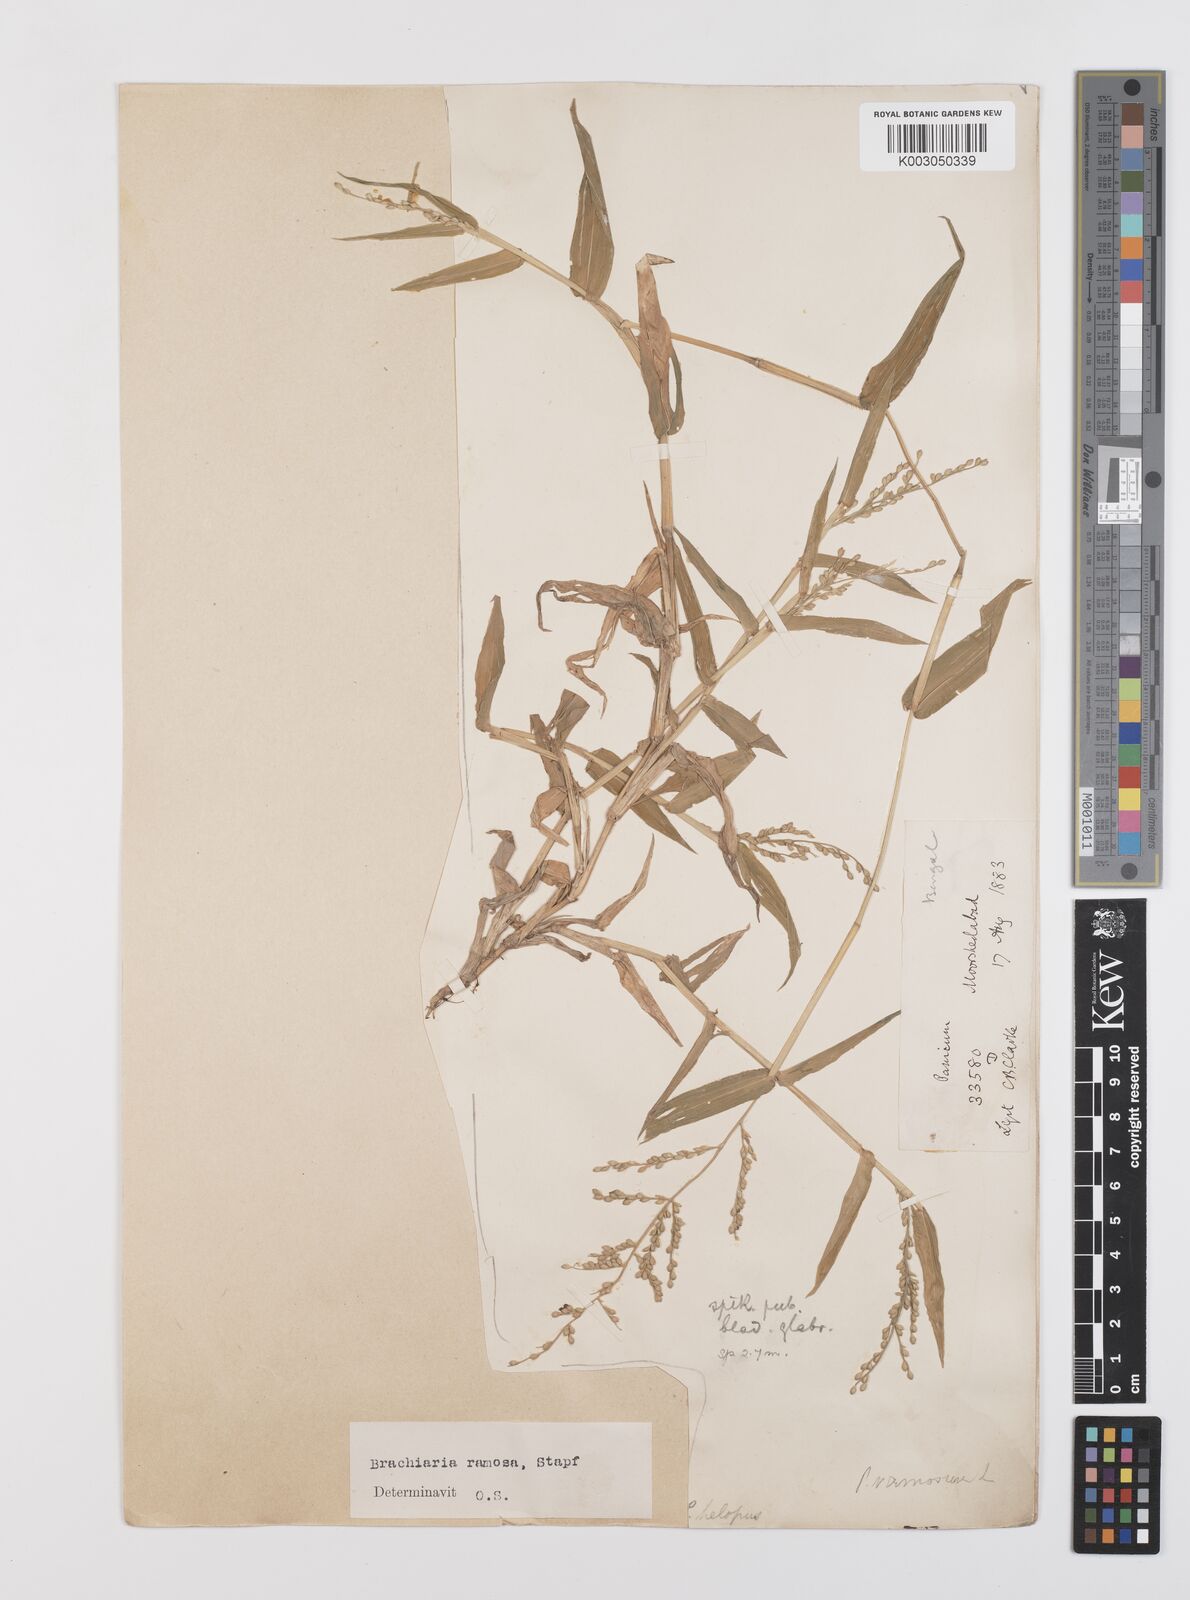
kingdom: Plantae
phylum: Tracheophyta
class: Liliopsida
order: Poales
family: Poaceae
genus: Urochloa
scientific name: Urochloa ramosa
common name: Browntop millet
